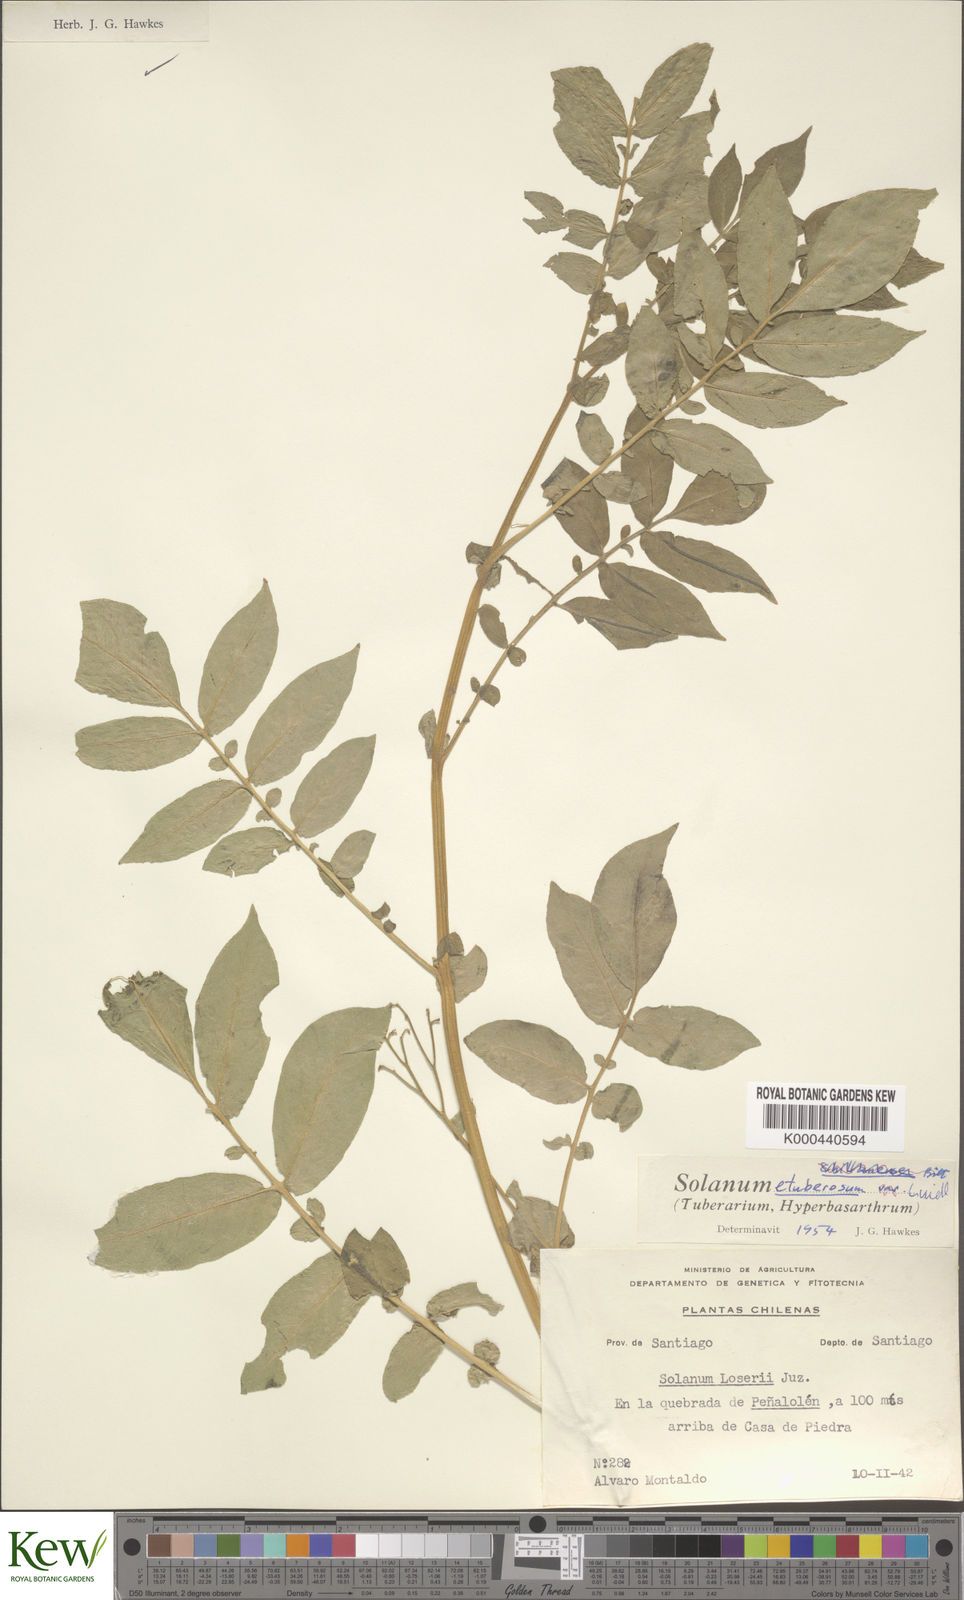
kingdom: Plantae
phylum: Tracheophyta
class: Magnoliopsida
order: Solanales
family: Solanaceae
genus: Solanum
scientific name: Solanum etuberosum
